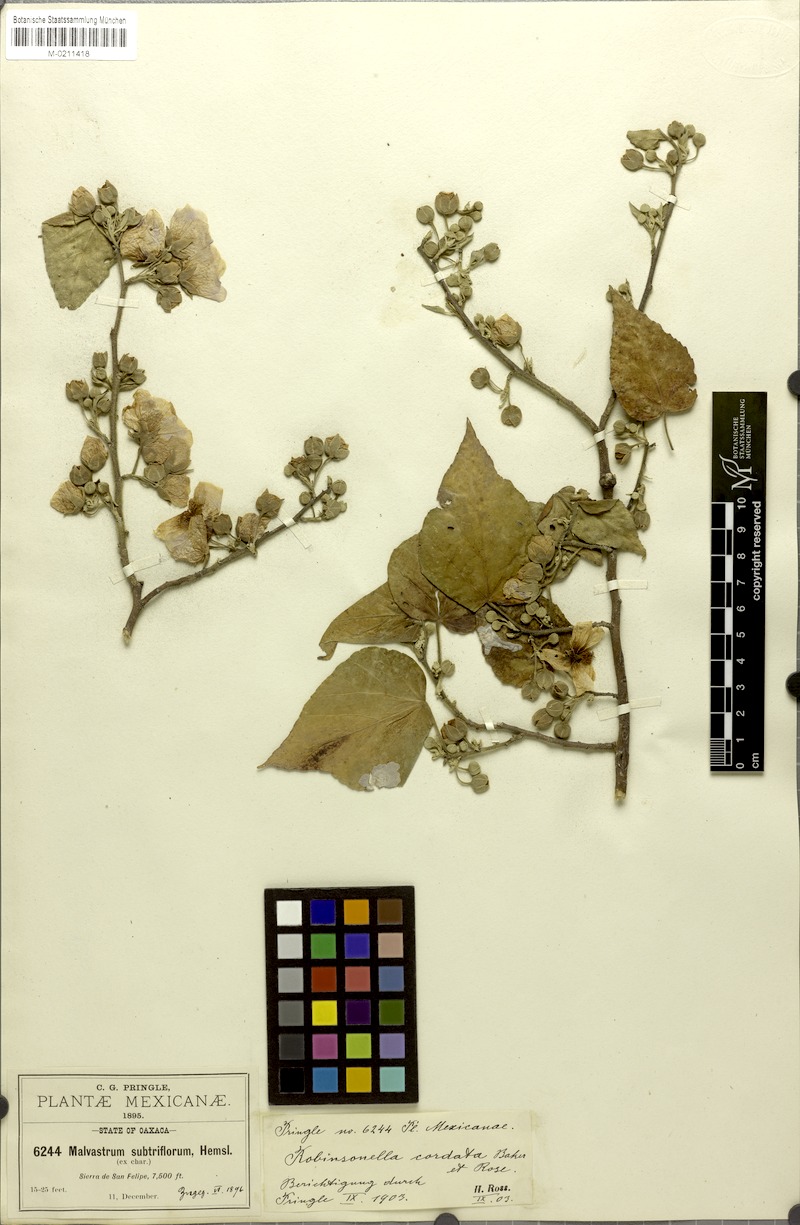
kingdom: Plantae
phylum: Tracheophyta
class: Magnoliopsida
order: Malvales
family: Malvaceae
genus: Robinsonella
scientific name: Robinsonella cordata
